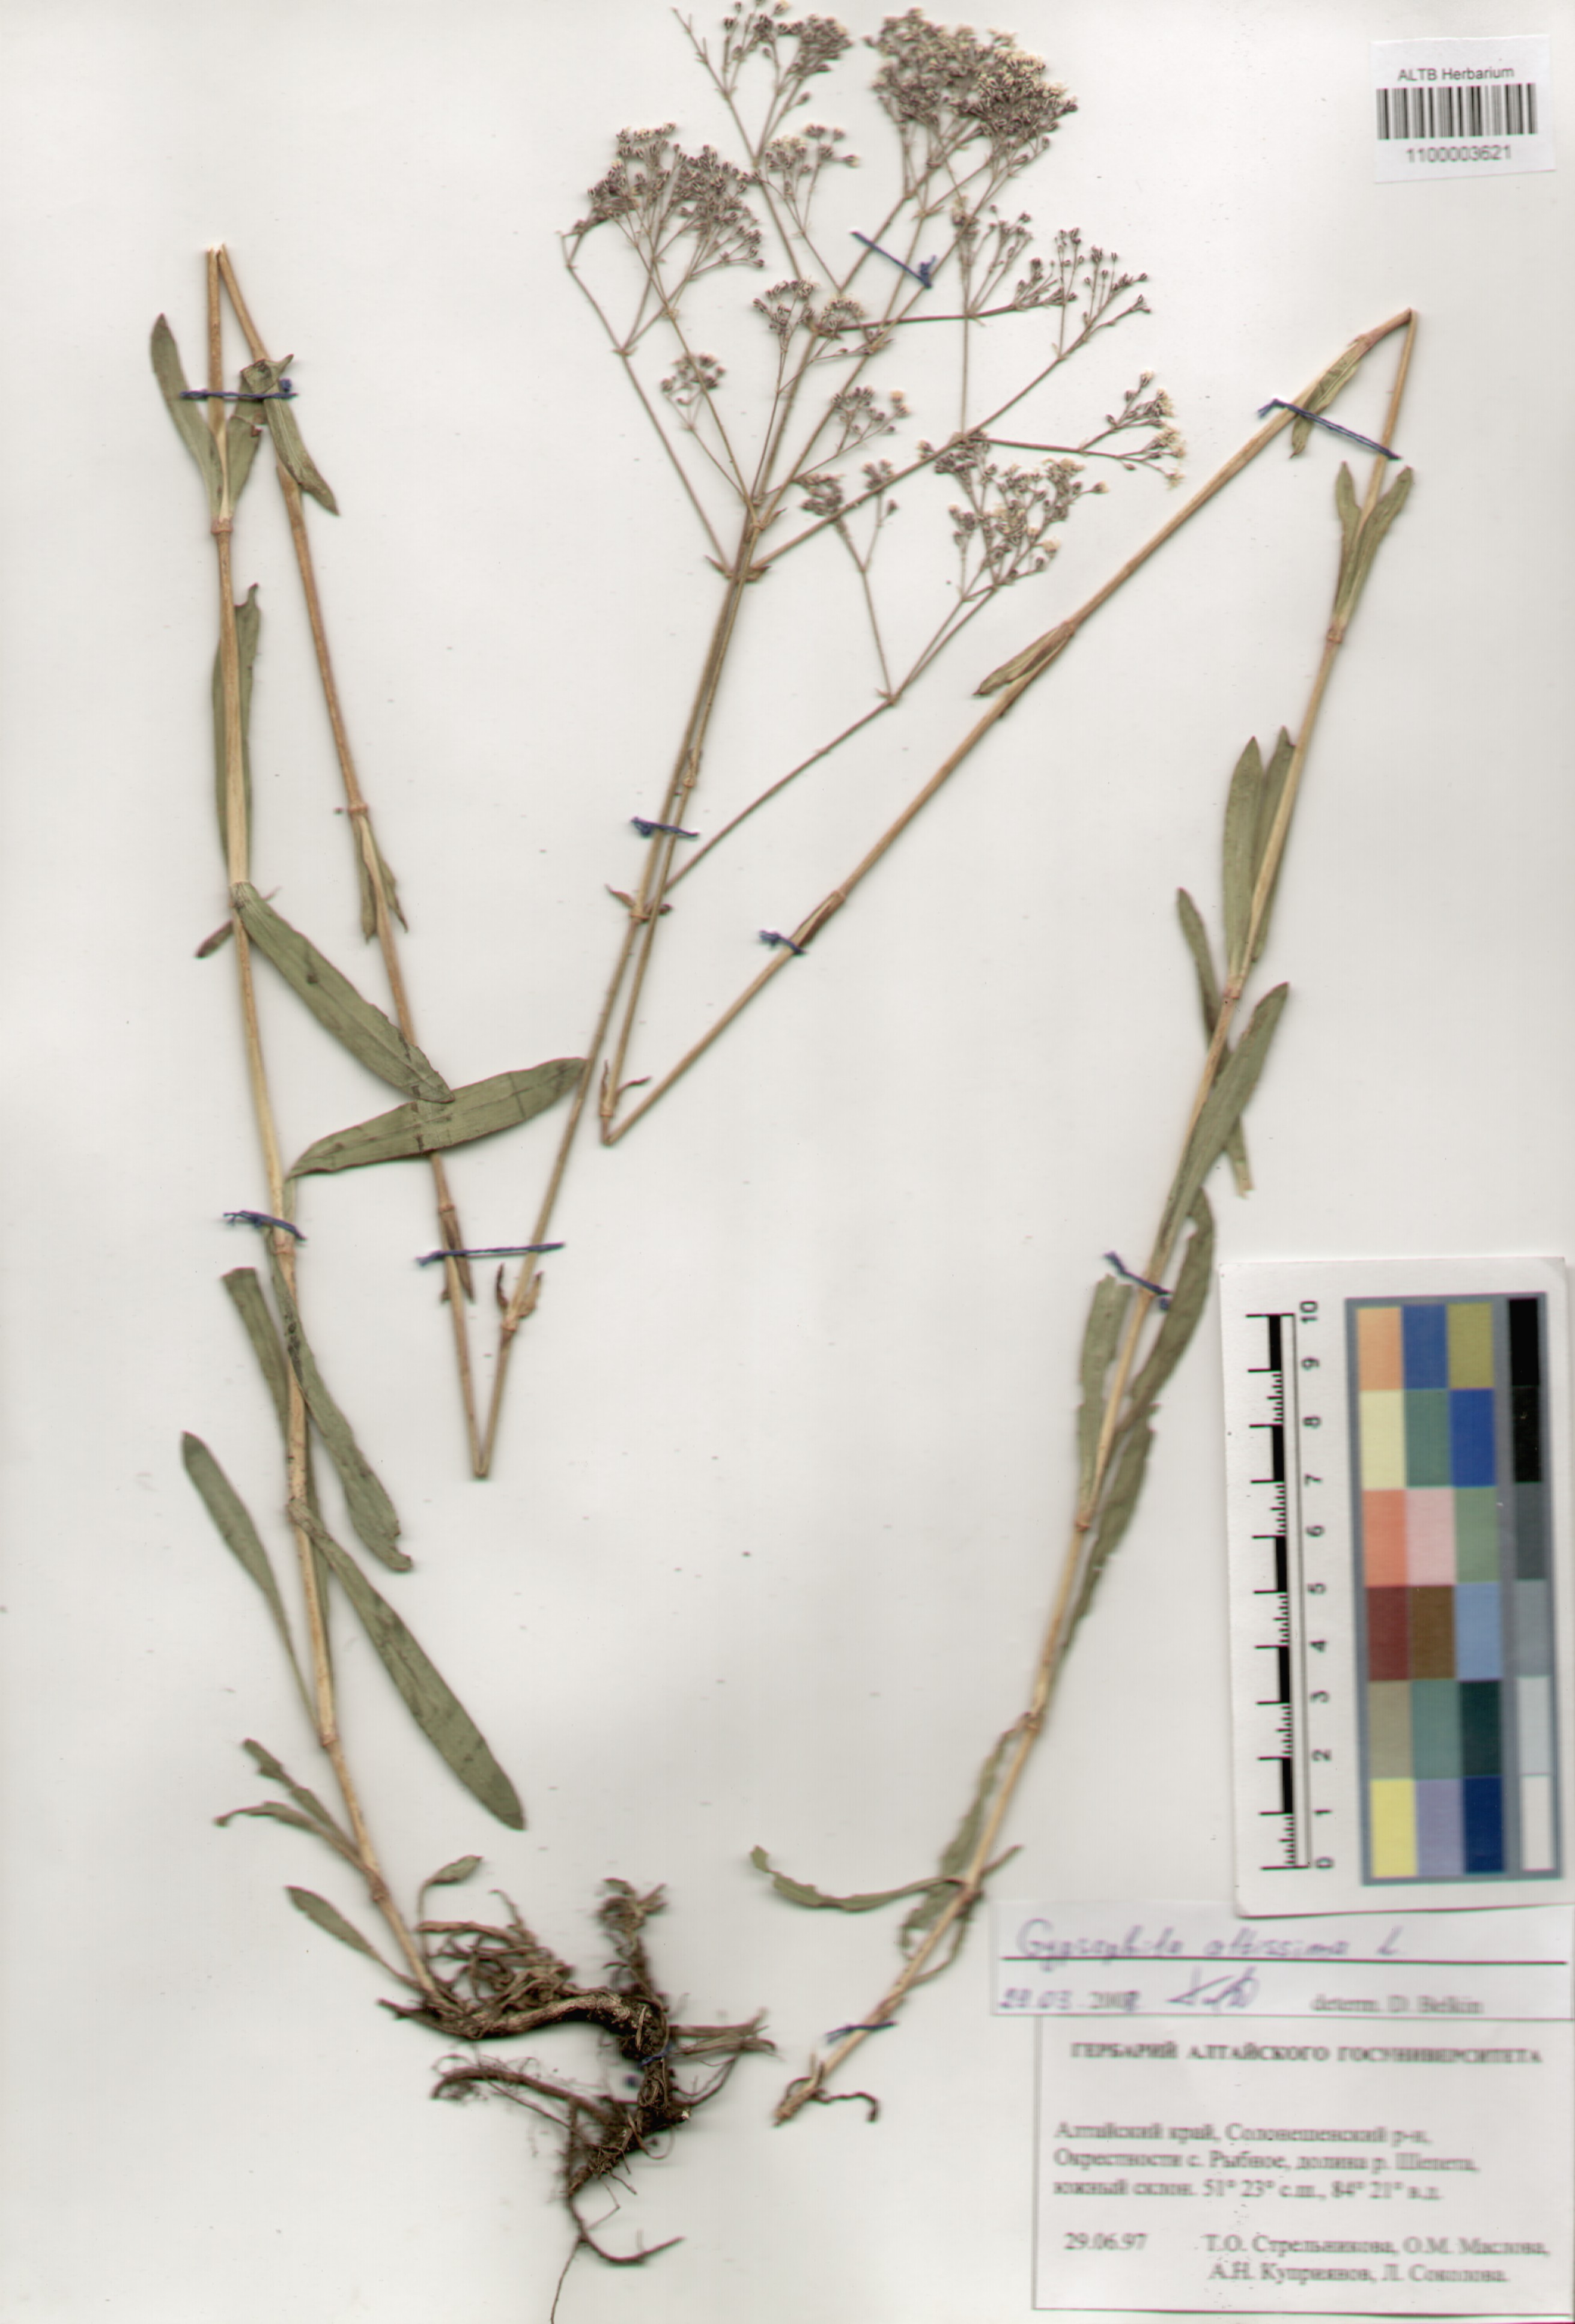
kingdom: Plantae
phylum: Tracheophyta
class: Magnoliopsida
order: Caryophyllales
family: Caryophyllaceae
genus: Gypsophila
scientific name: Gypsophila altissima
